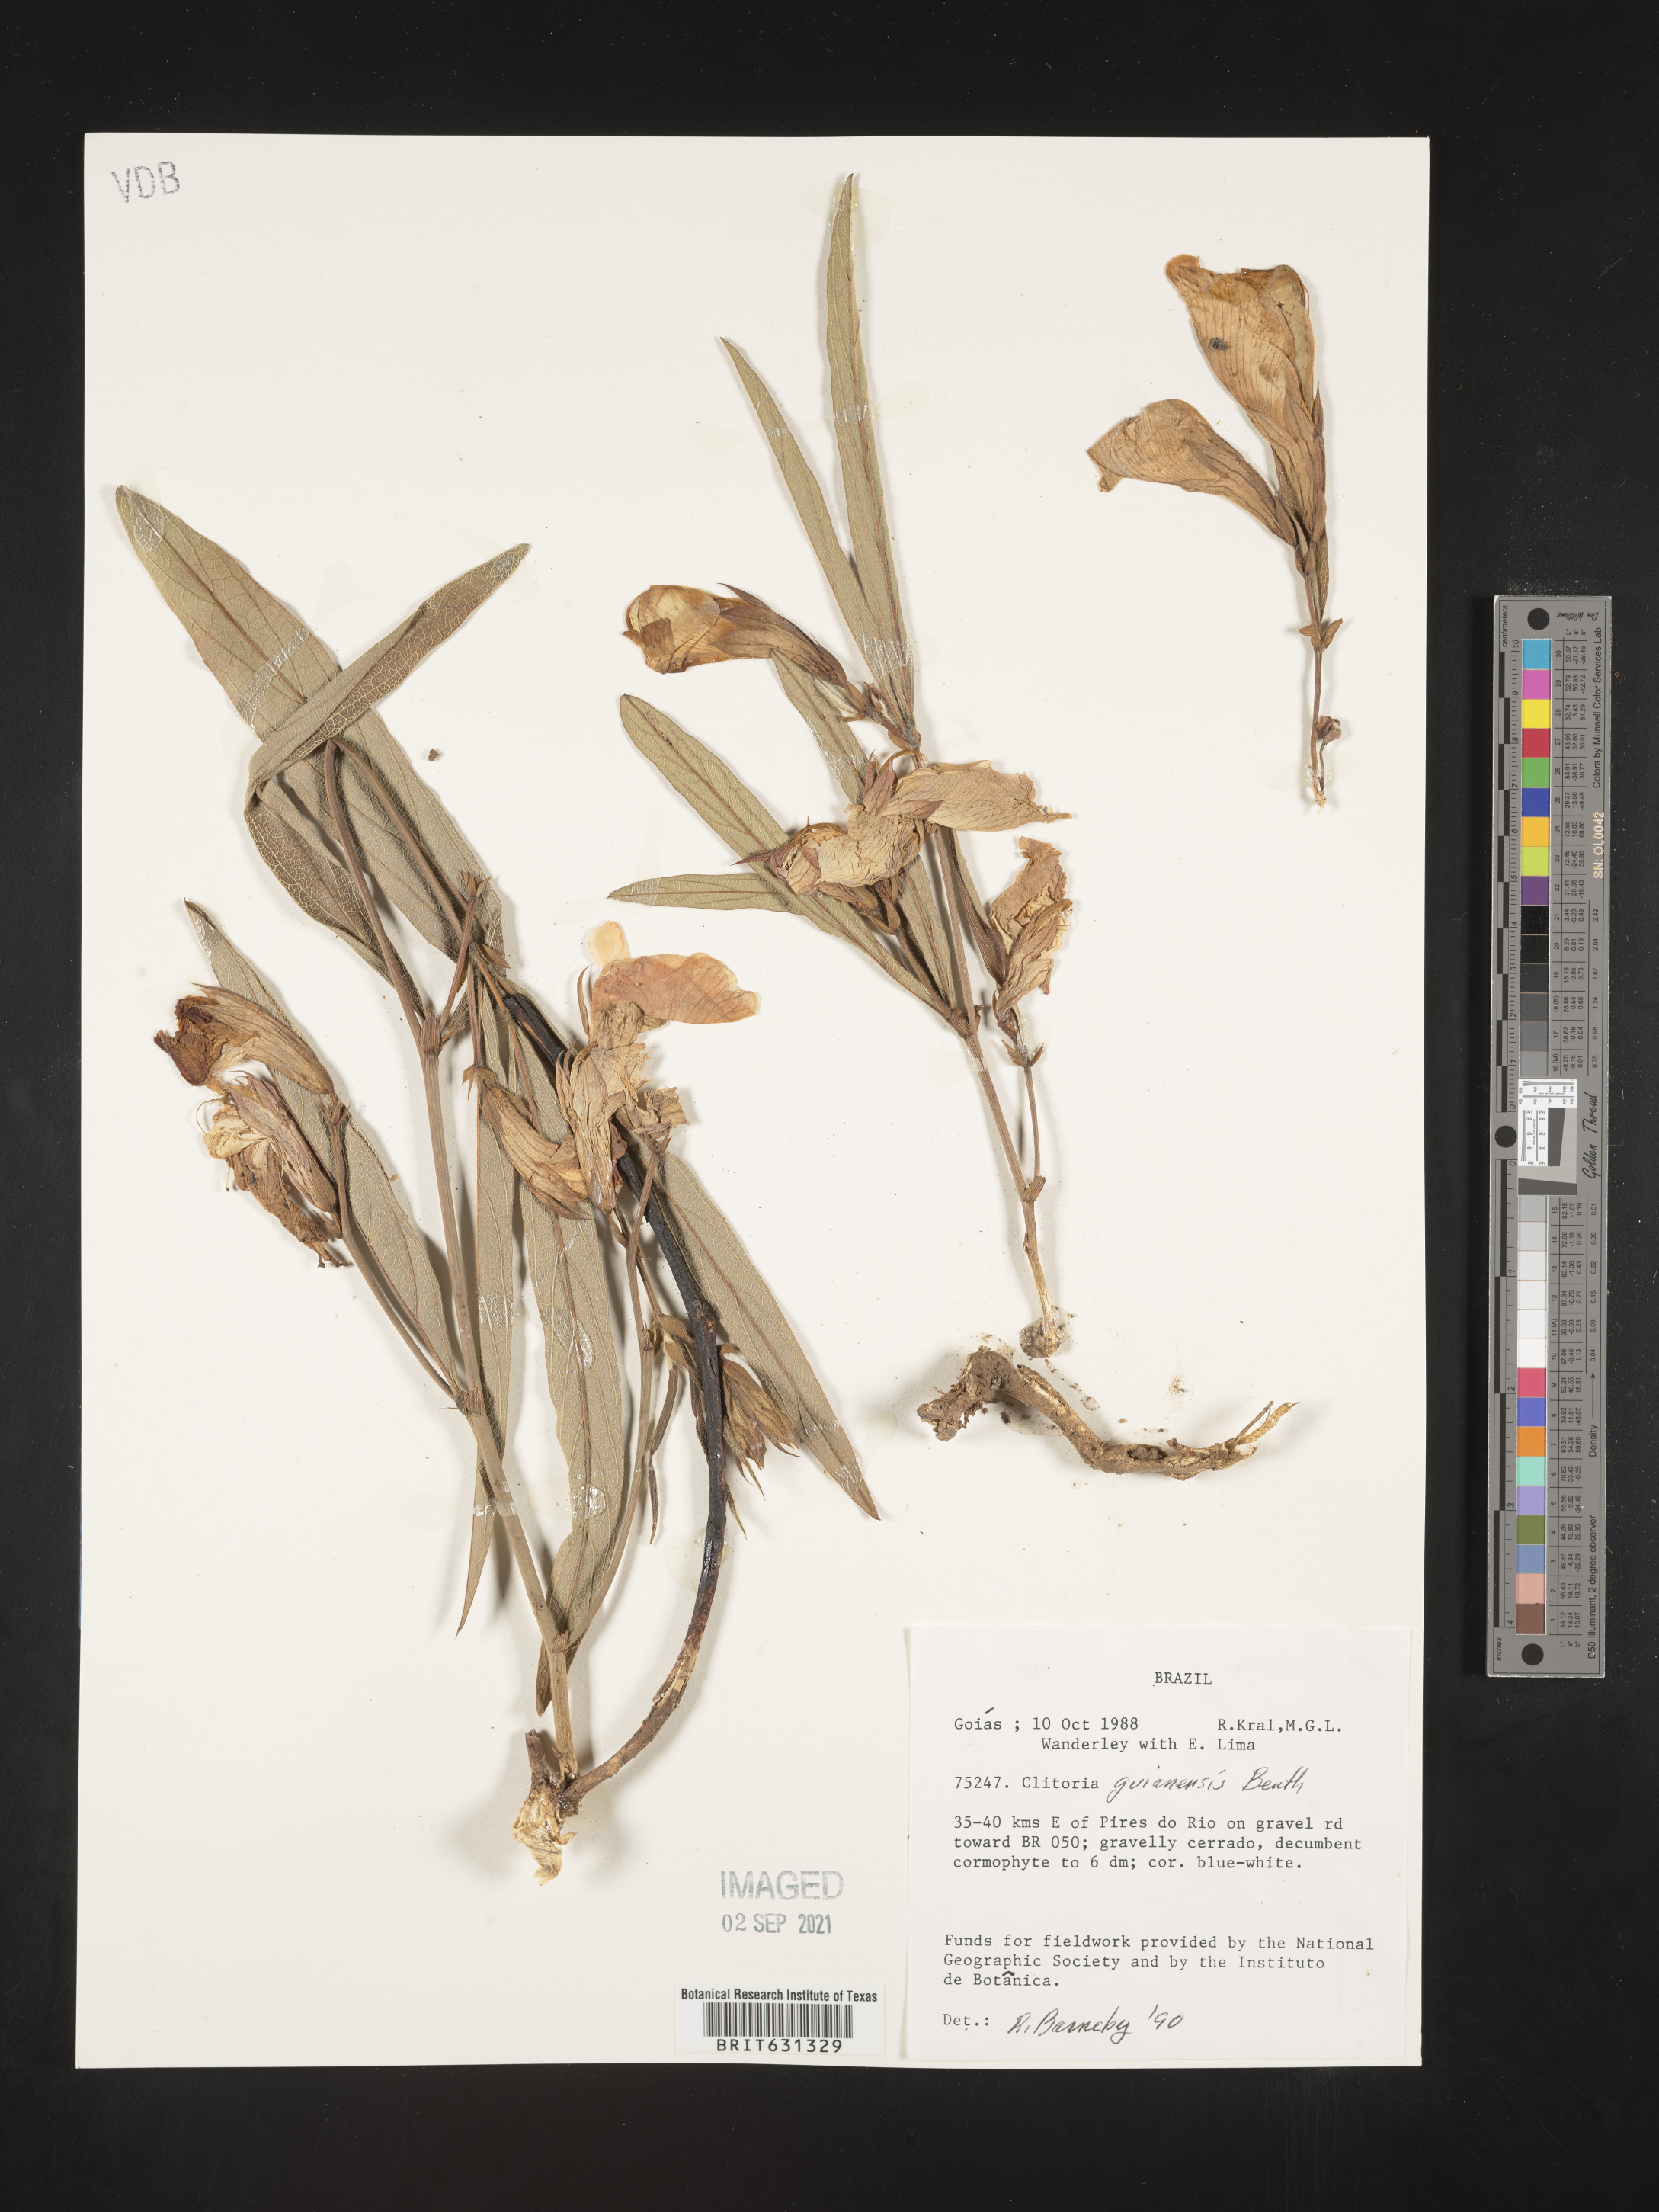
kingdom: Plantae
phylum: Tracheophyta
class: Magnoliopsida
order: Fabales
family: Fabaceae
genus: Clitoria
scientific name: Clitoria guianensis
